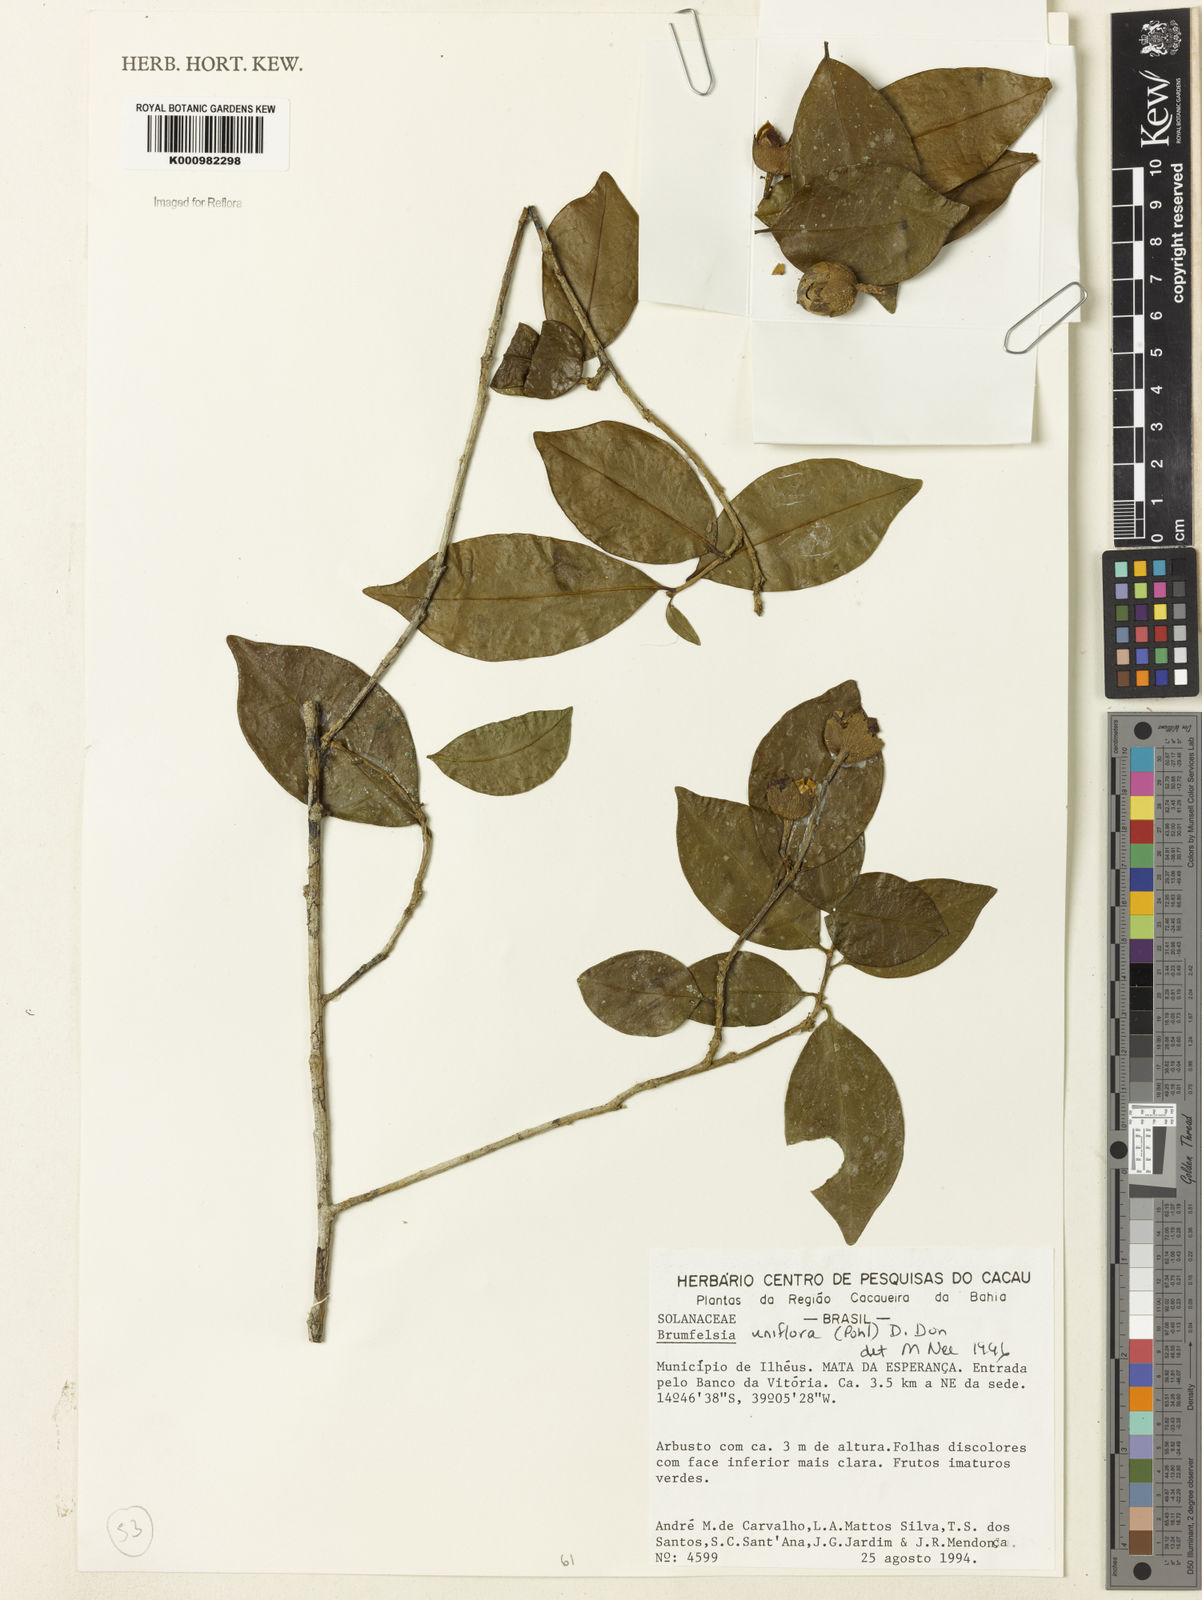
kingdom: Plantae
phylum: Tracheophyta
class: Magnoliopsida
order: Solanales
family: Solanaceae
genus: Brunfelsia
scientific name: Brunfelsia uniflora
